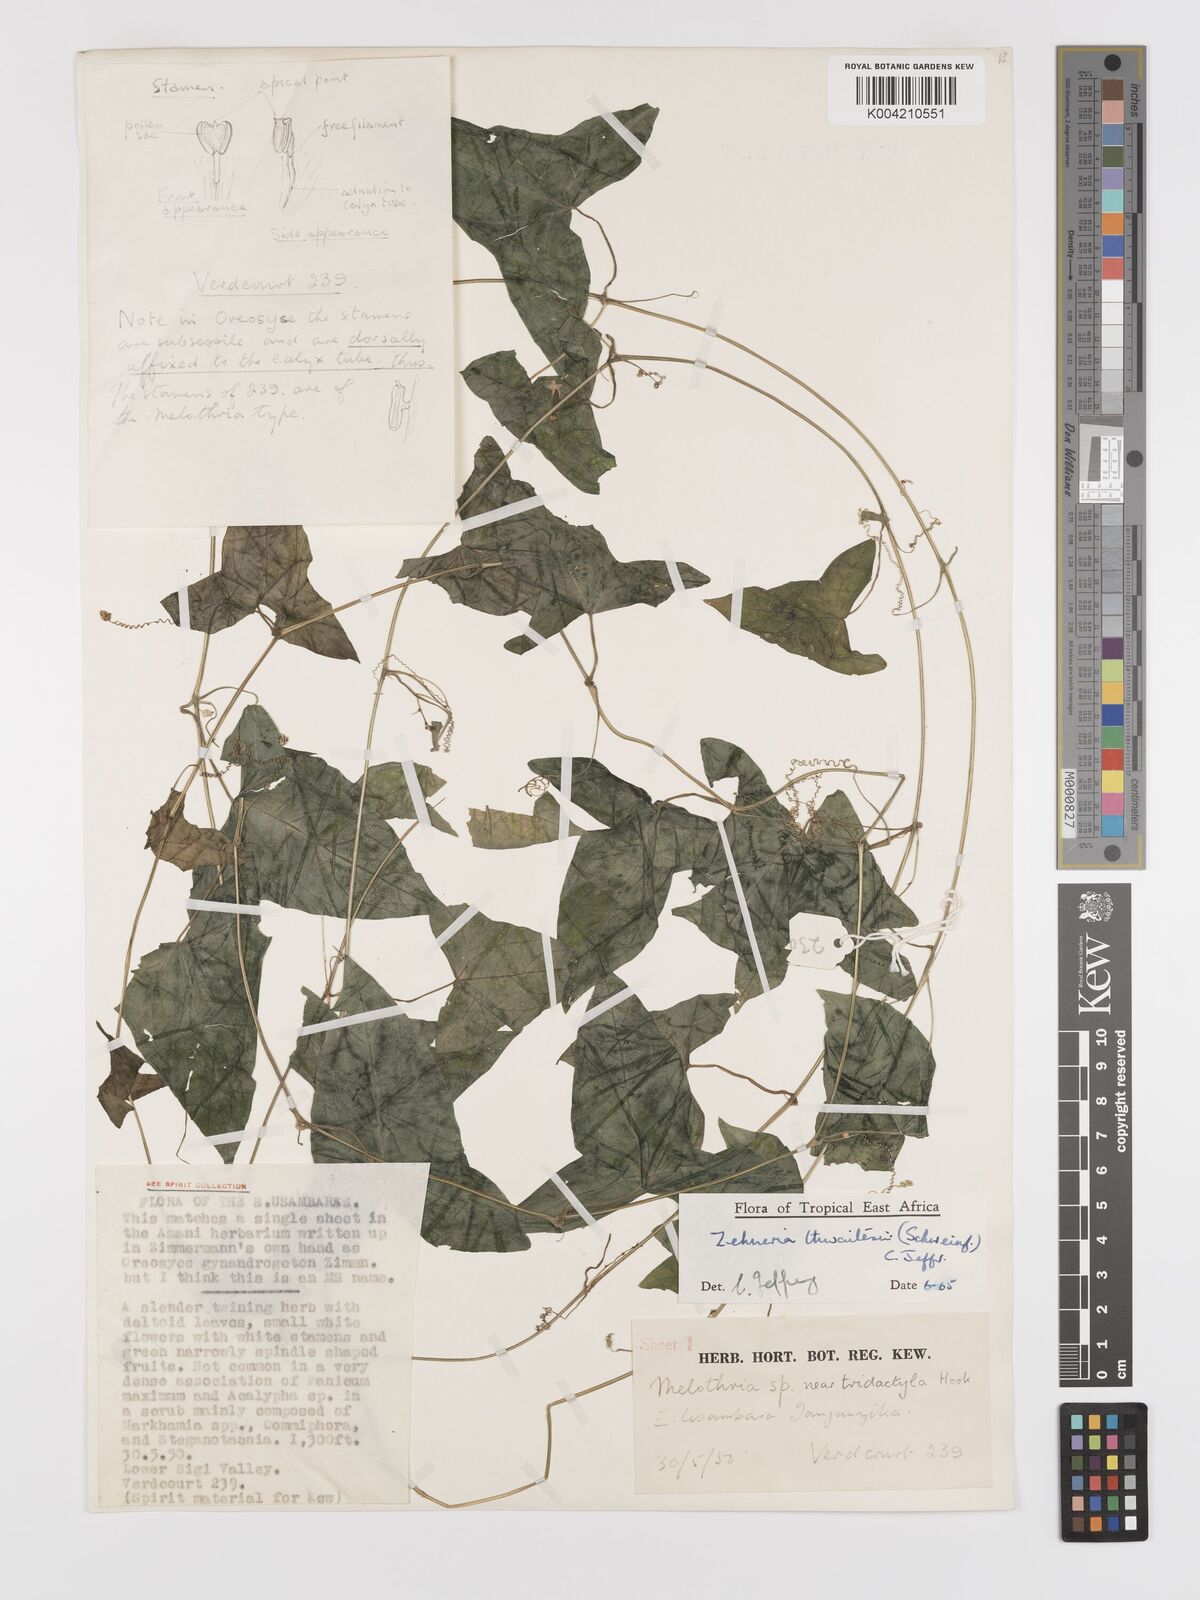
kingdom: Plantae
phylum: Tracheophyta
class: Magnoliopsida
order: Cucurbitales
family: Cucurbitaceae
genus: Zehneria
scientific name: Zehneria thwaitesii
